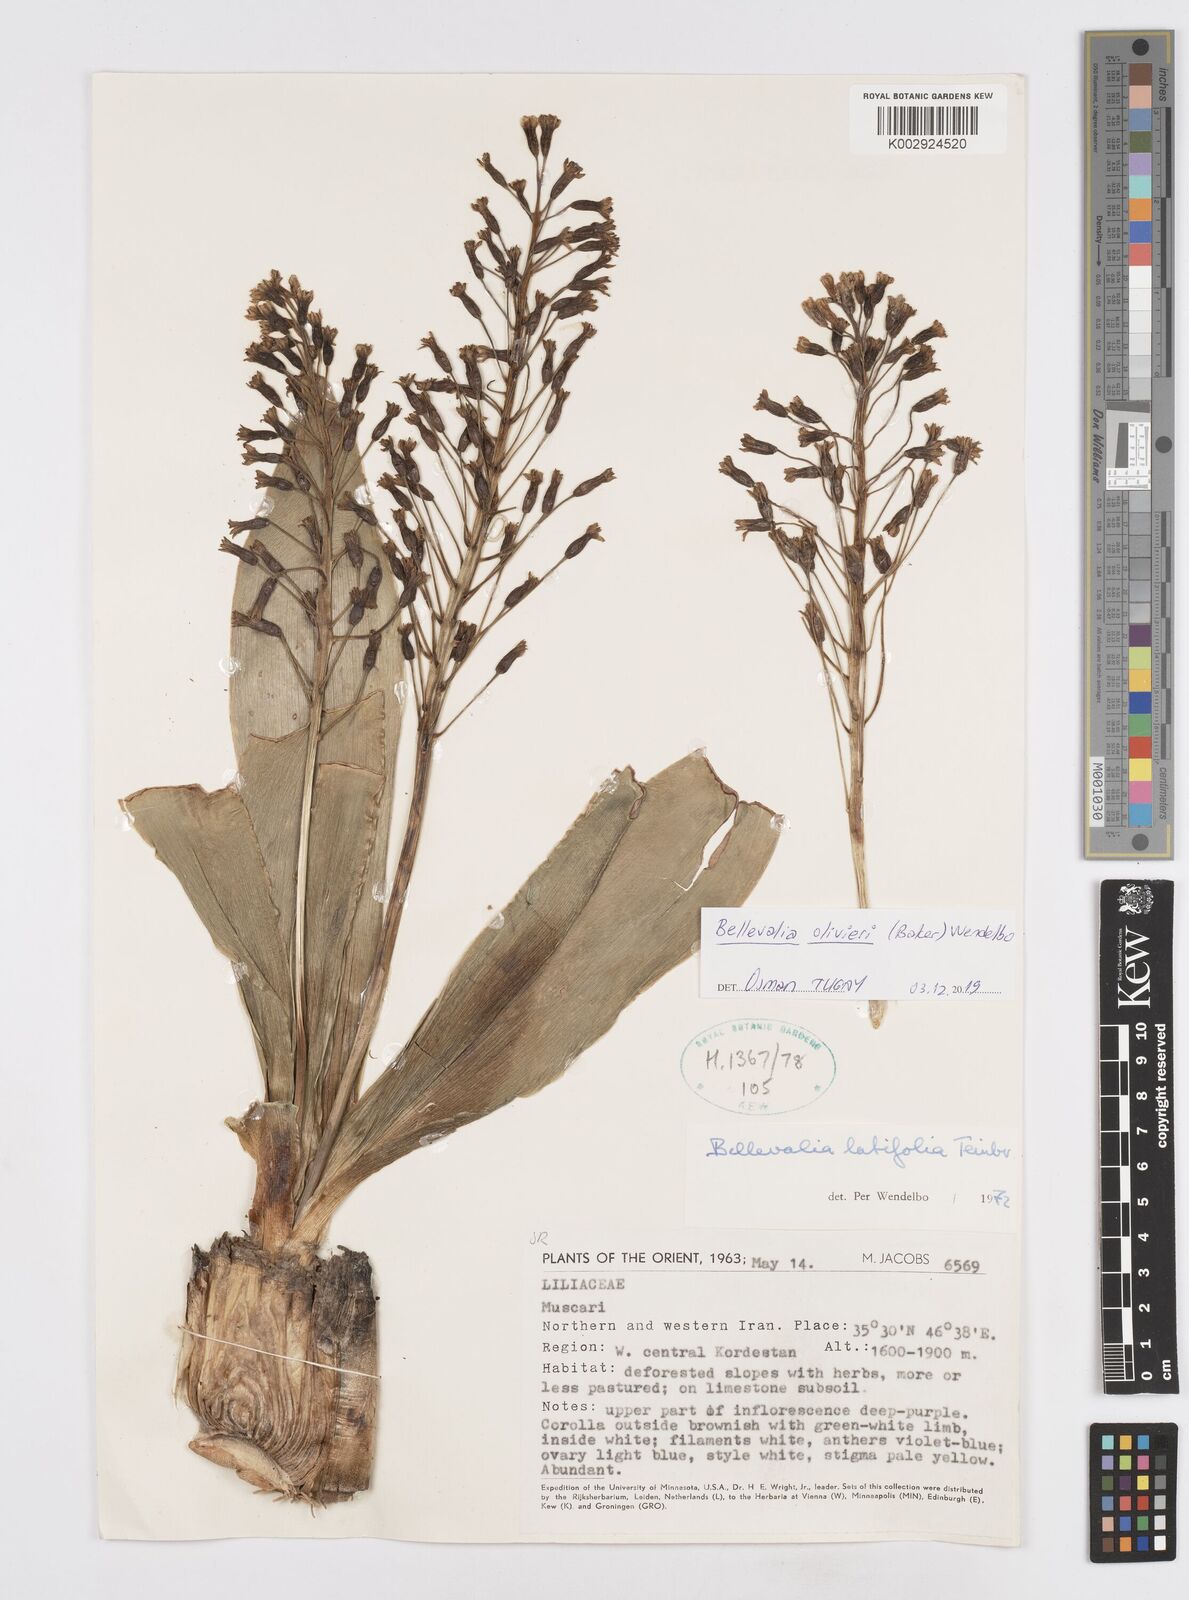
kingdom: Plantae
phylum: Tracheophyta
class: Liliopsida
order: Asparagales
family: Asparagaceae
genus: Bellevalia
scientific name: Bellevalia olivieri
